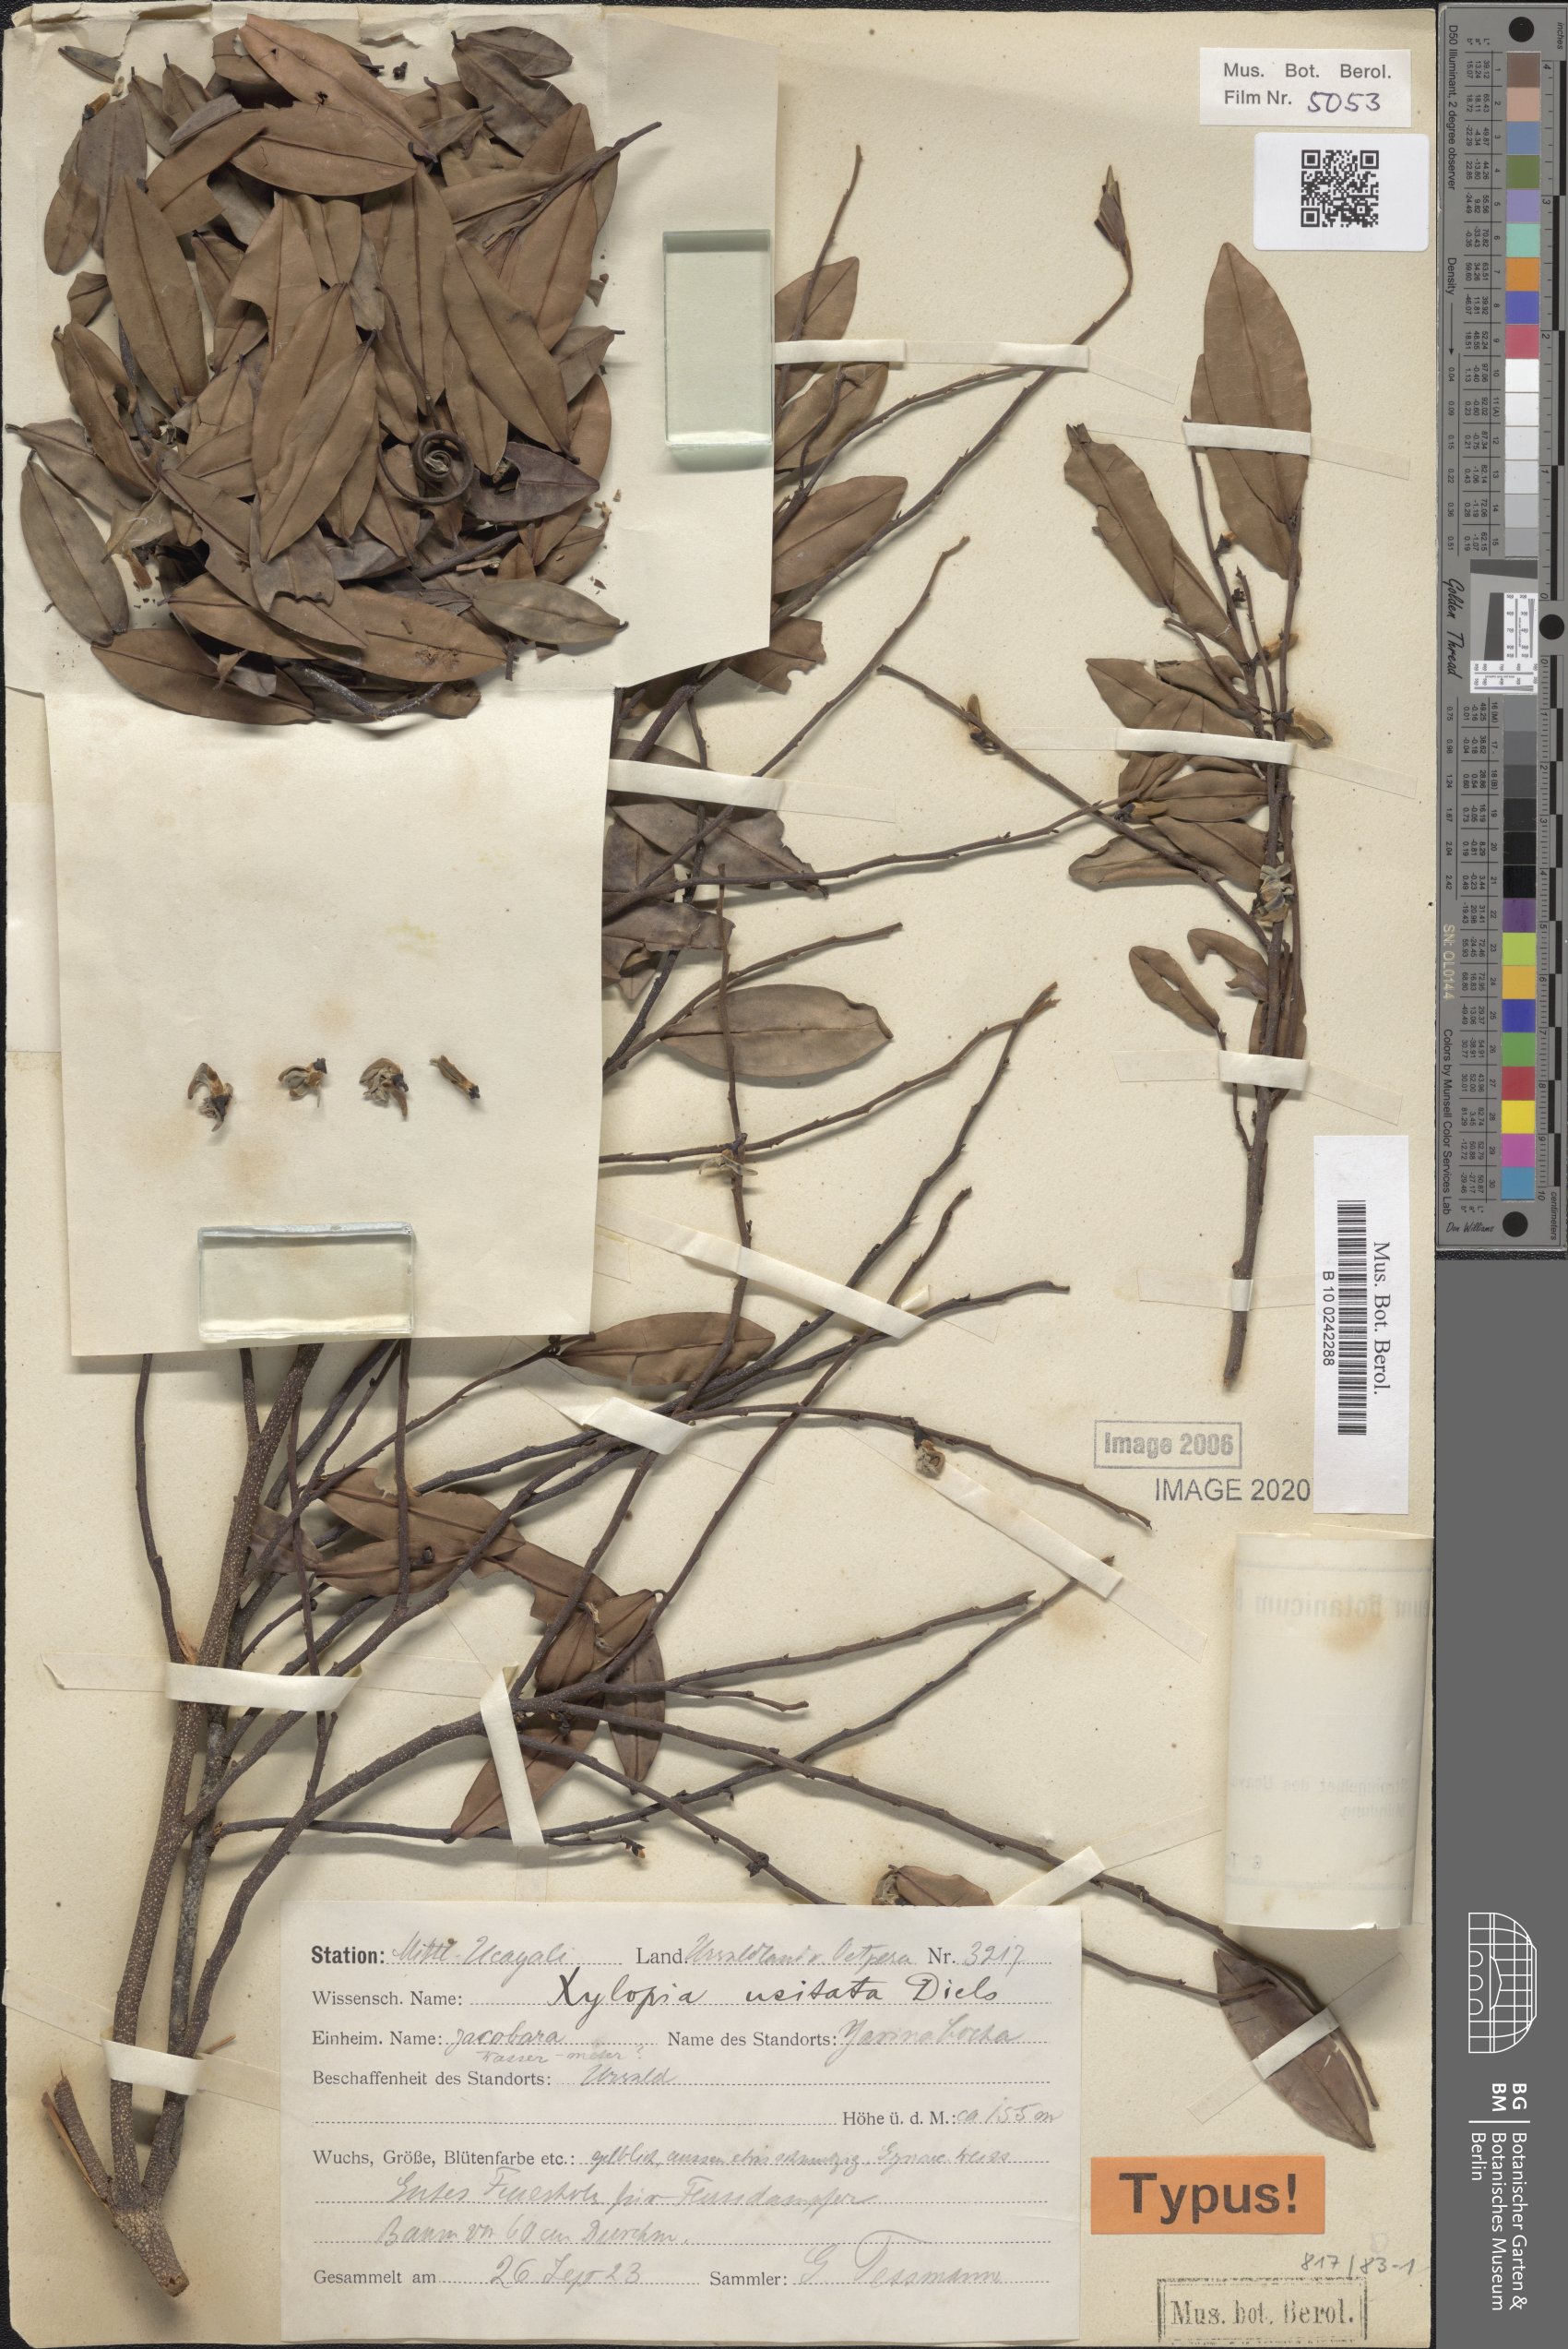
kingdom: Plantae
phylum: Tracheophyta
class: Magnoliopsida
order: Magnoliales
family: Annonaceae
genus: Xylopia
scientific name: Xylopia ligustrifolia
